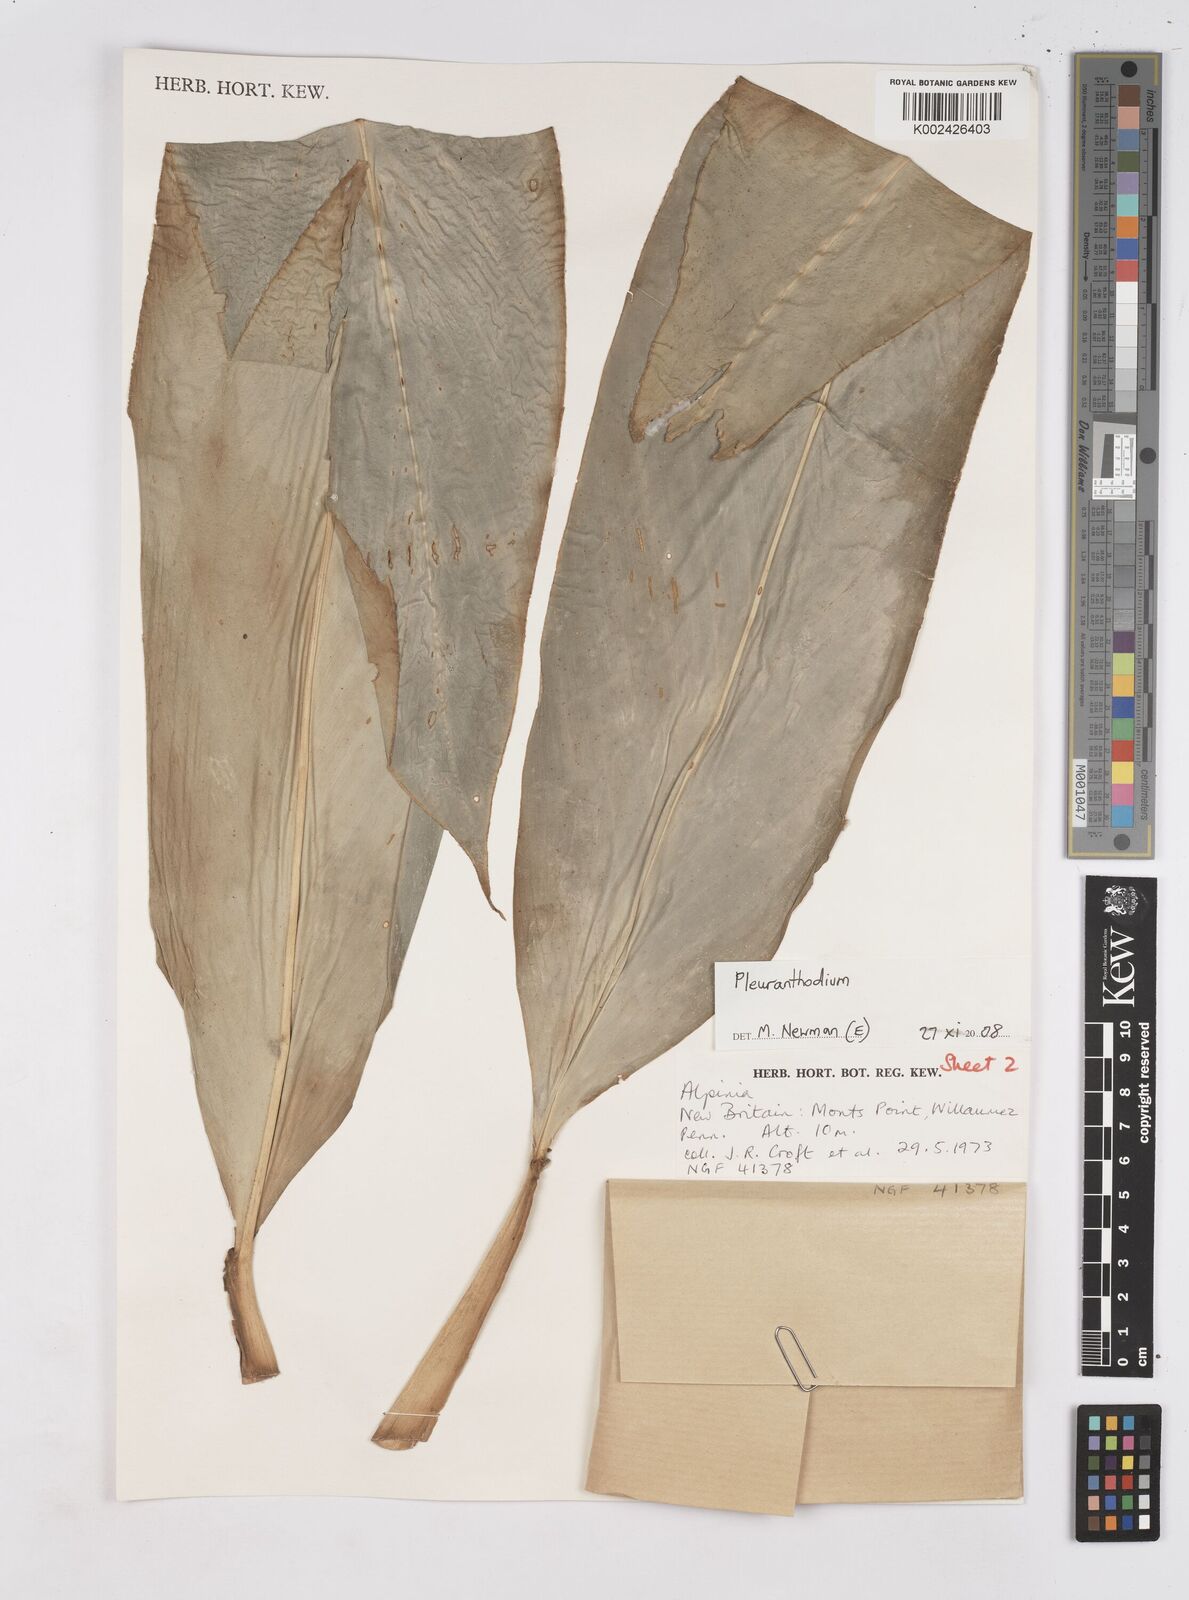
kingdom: Plantae
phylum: Tracheophyta
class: Liliopsida
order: Zingiberales
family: Zingiberaceae
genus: Pleuranthodium
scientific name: Pleuranthodium
